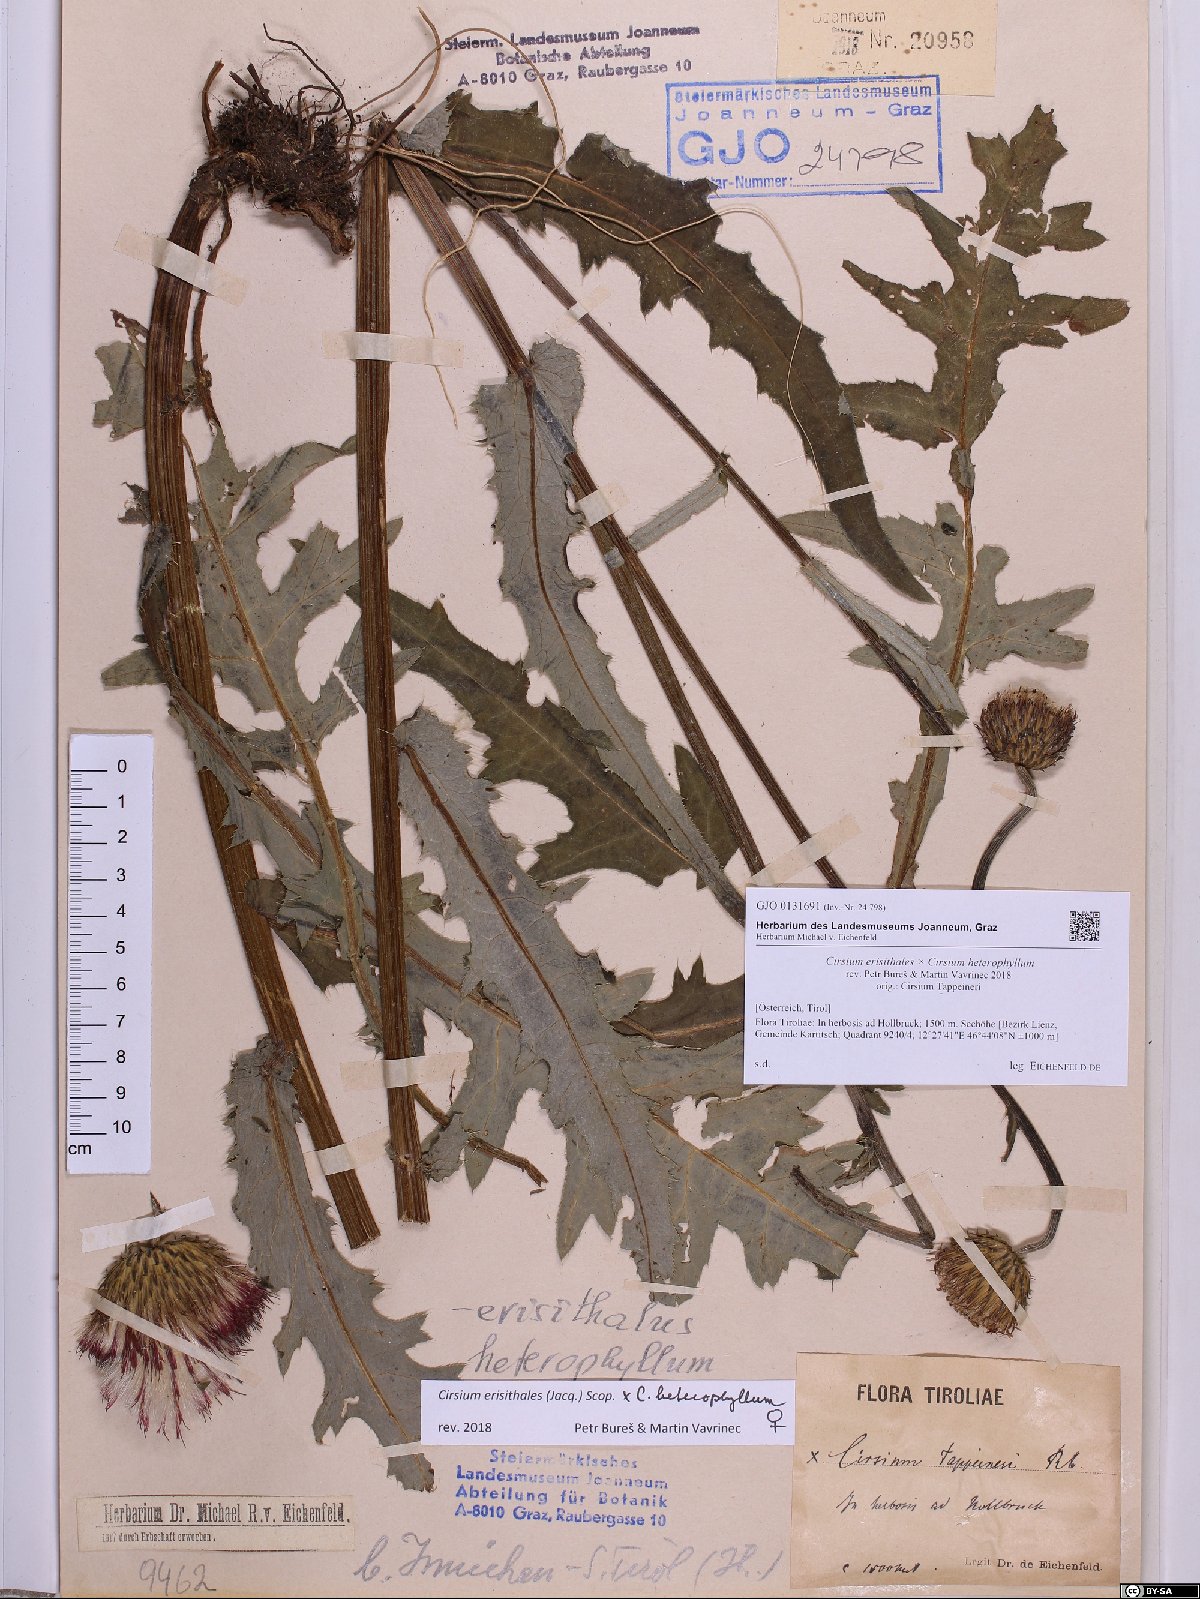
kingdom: Plantae
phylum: Tracheophyta
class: Magnoliopsida
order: Asterales
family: Asteraceae
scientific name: Asteraceae
